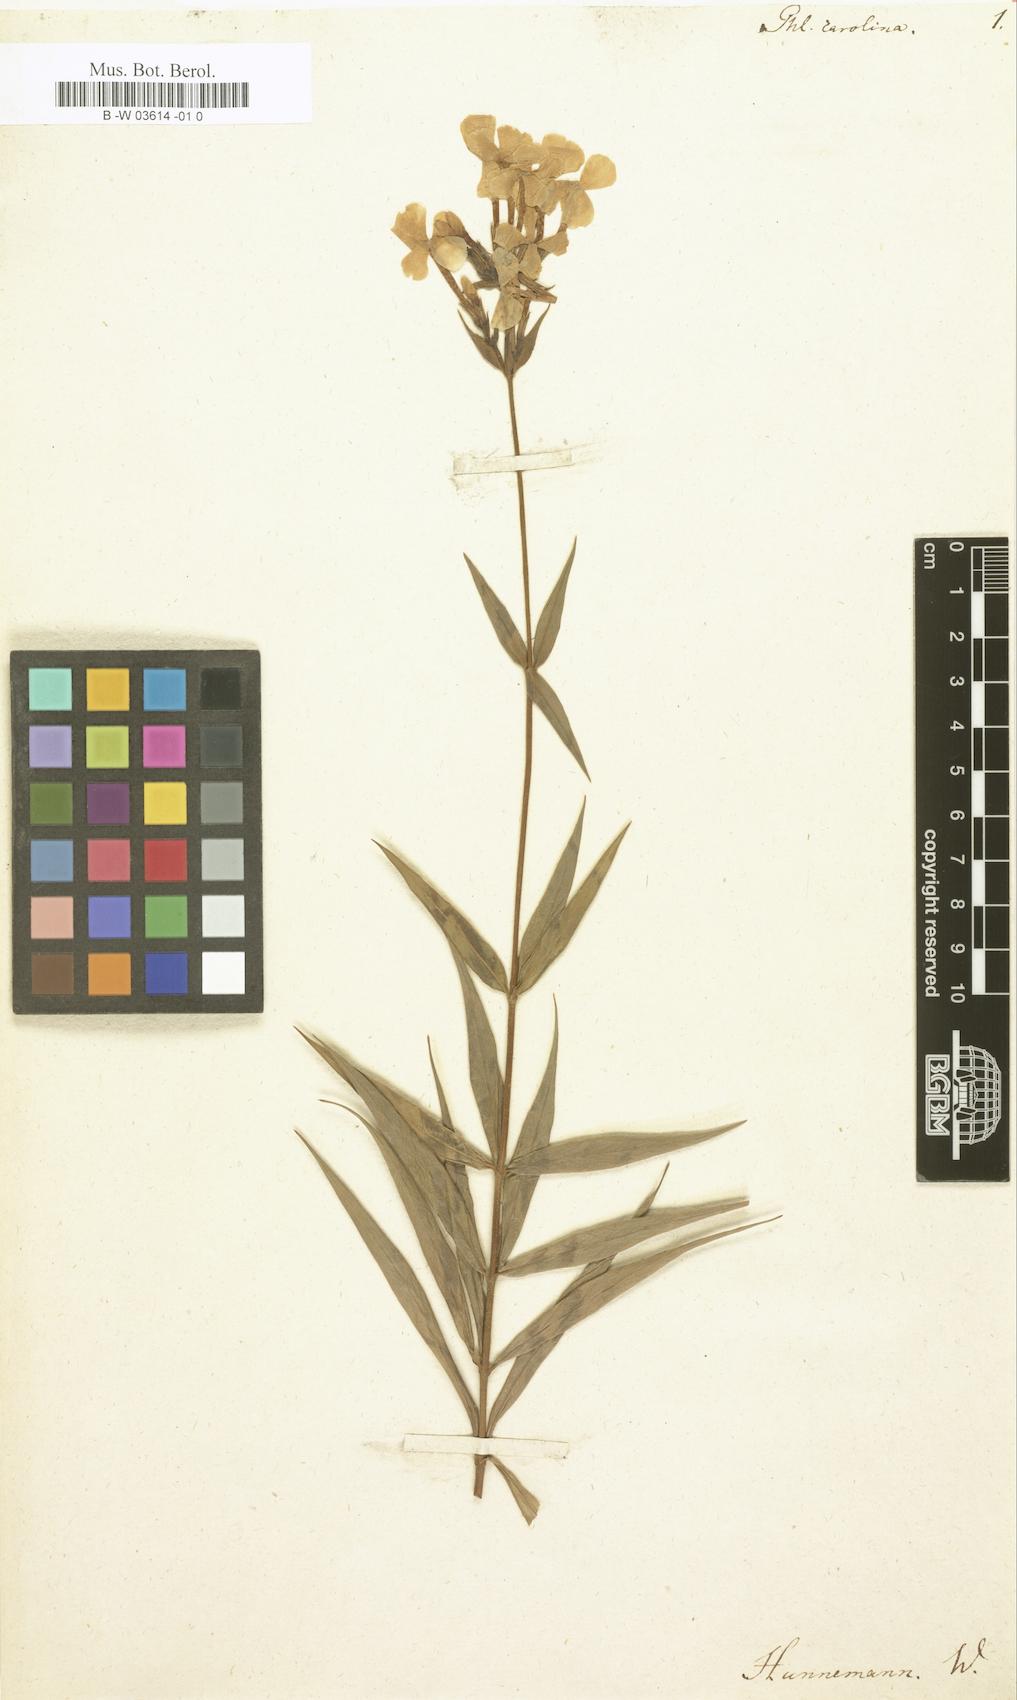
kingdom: Plantae
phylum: Tracheophyta
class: Magnoliopsida
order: Ericales
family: Polemoniaceae
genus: Phlox
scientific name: Phlox carolina
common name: Thick-leaf phlox
